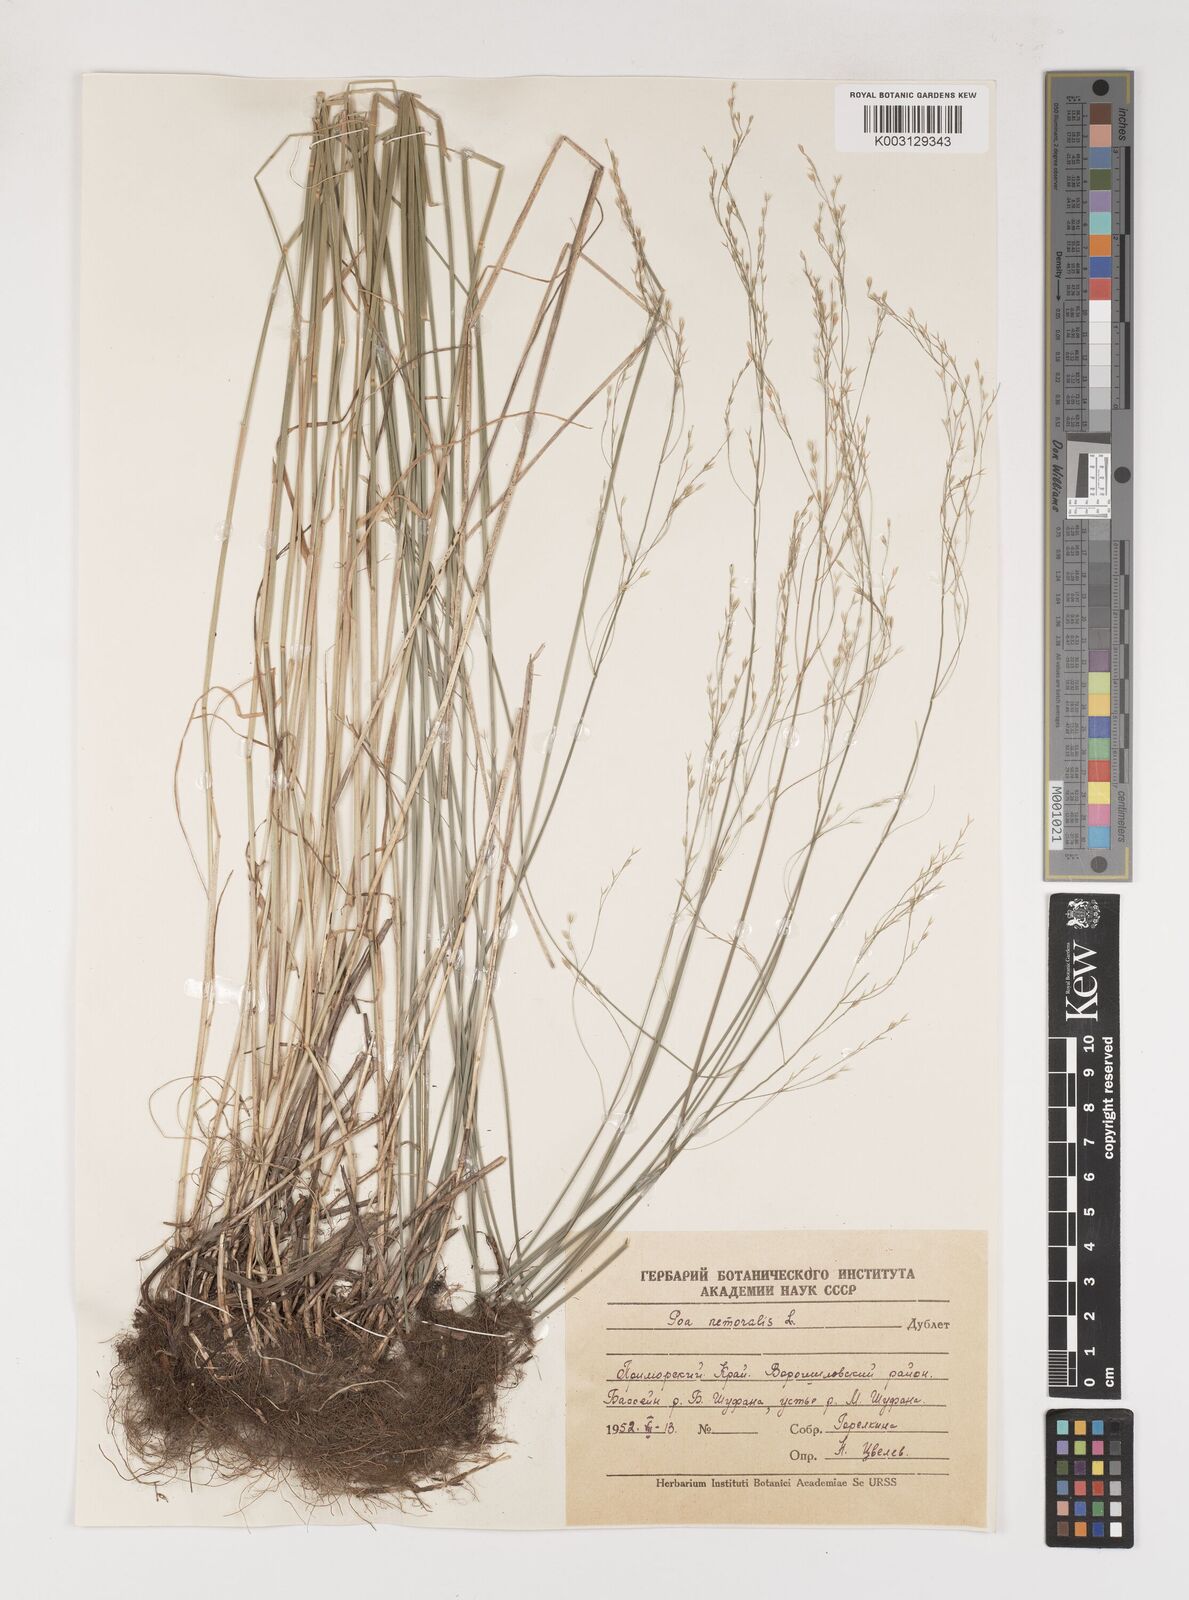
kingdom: Plantae
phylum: Tracheophyta
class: Liliopsida
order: Poales
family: Poaceae
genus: Poa
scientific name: Poa nemoralis
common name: Wood bluegrass
